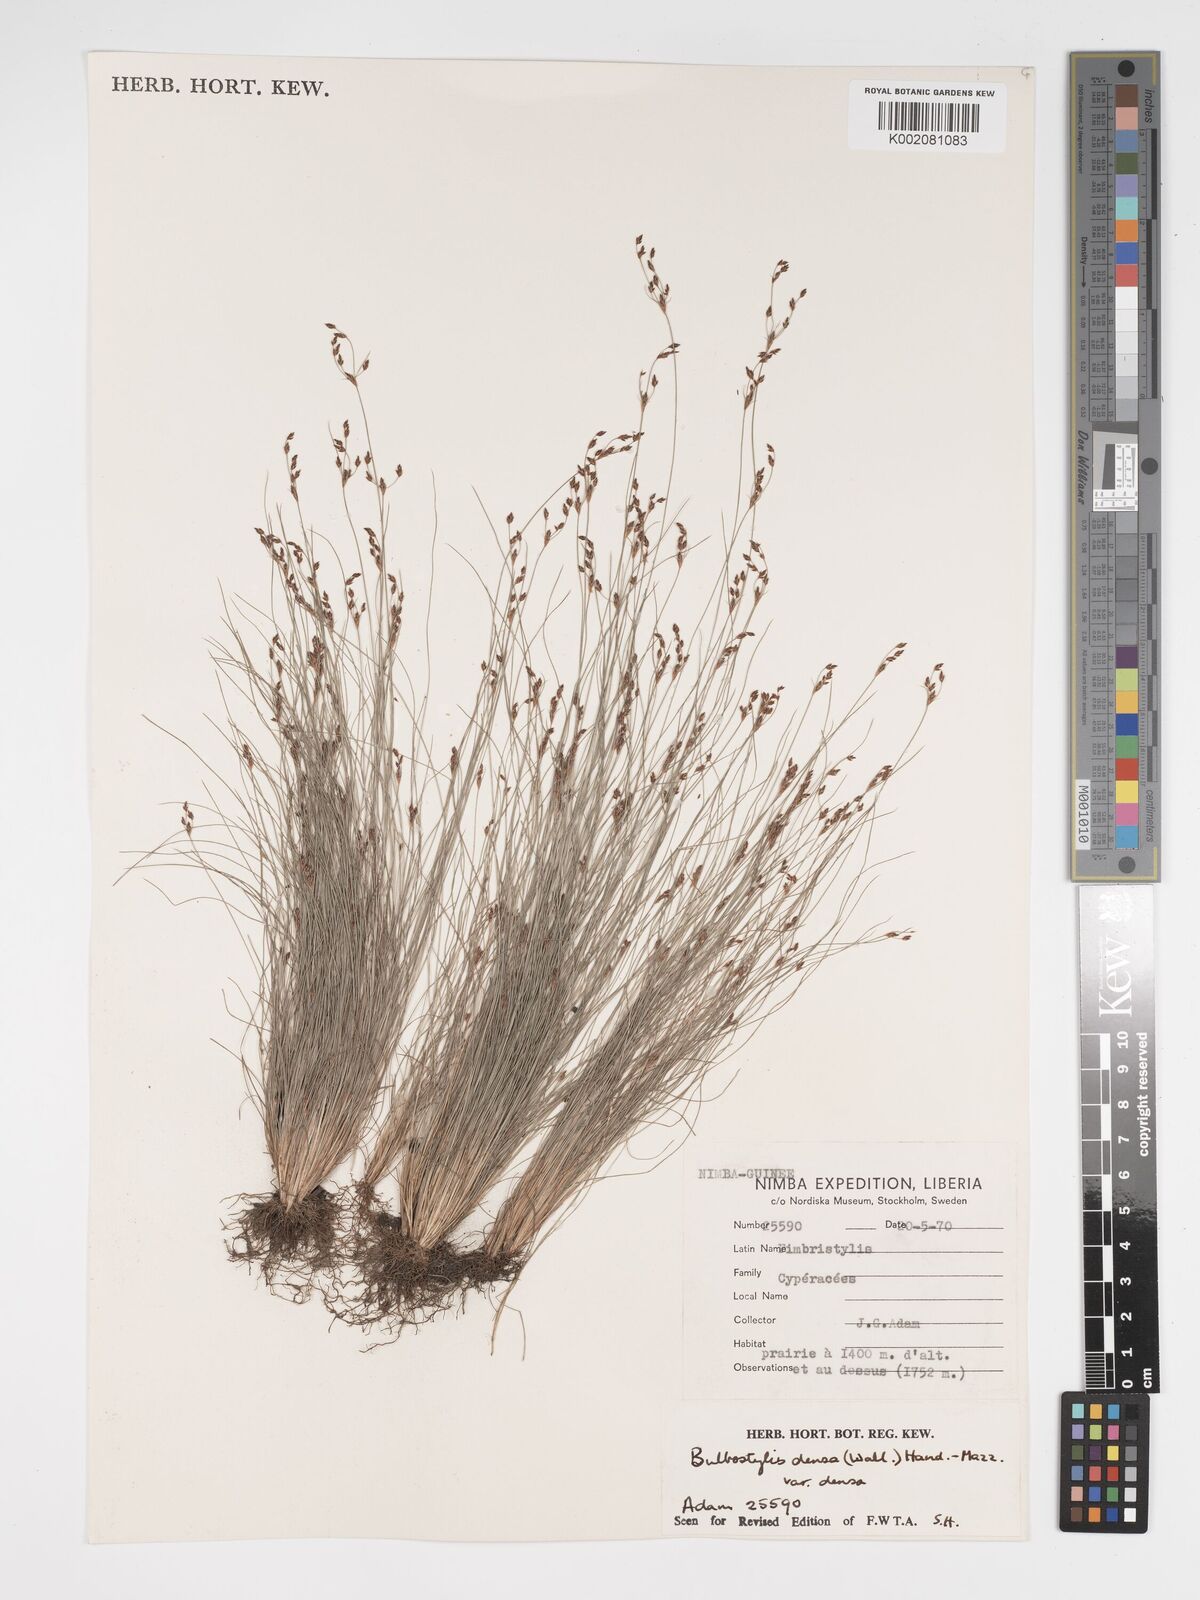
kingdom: Plantae
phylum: Tracheophyta
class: Liliopsida
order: Poales
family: Cyperaceae
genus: Bulbostylis
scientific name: Bulbostylis densa
